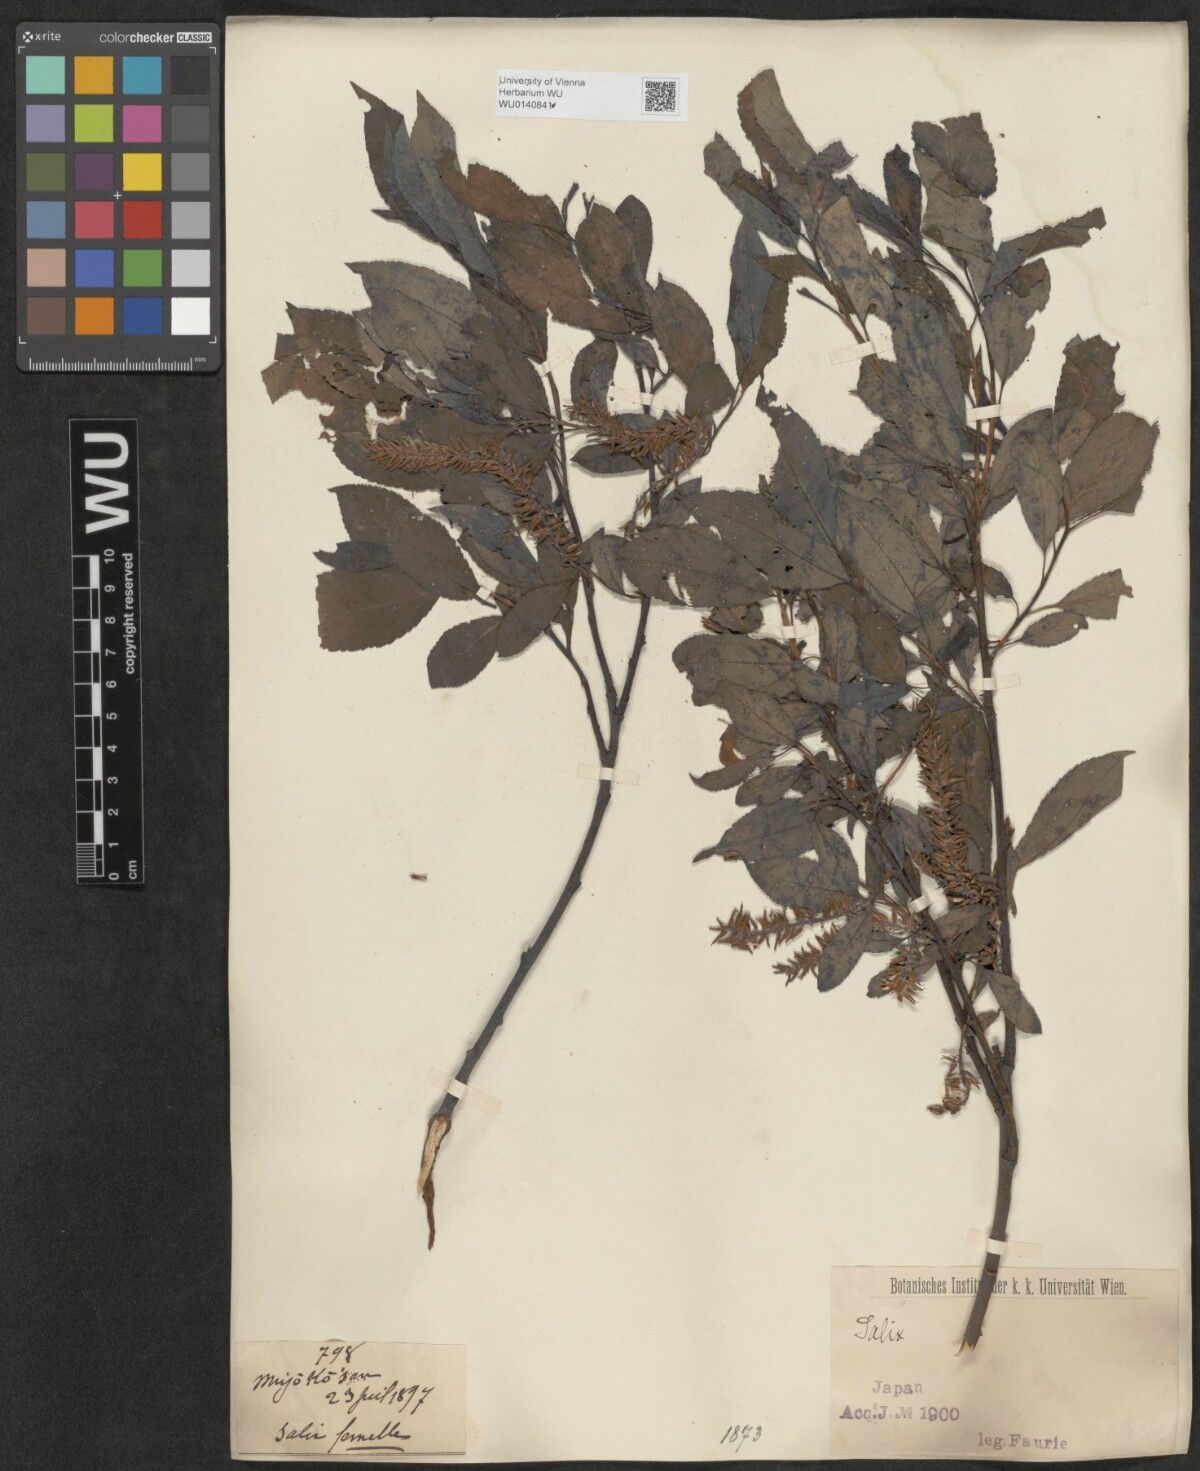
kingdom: Plantae
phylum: Tracheophyta
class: Magnoliopsida
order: Malpighiales
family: Salicaceae
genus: Salix
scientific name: Salix
